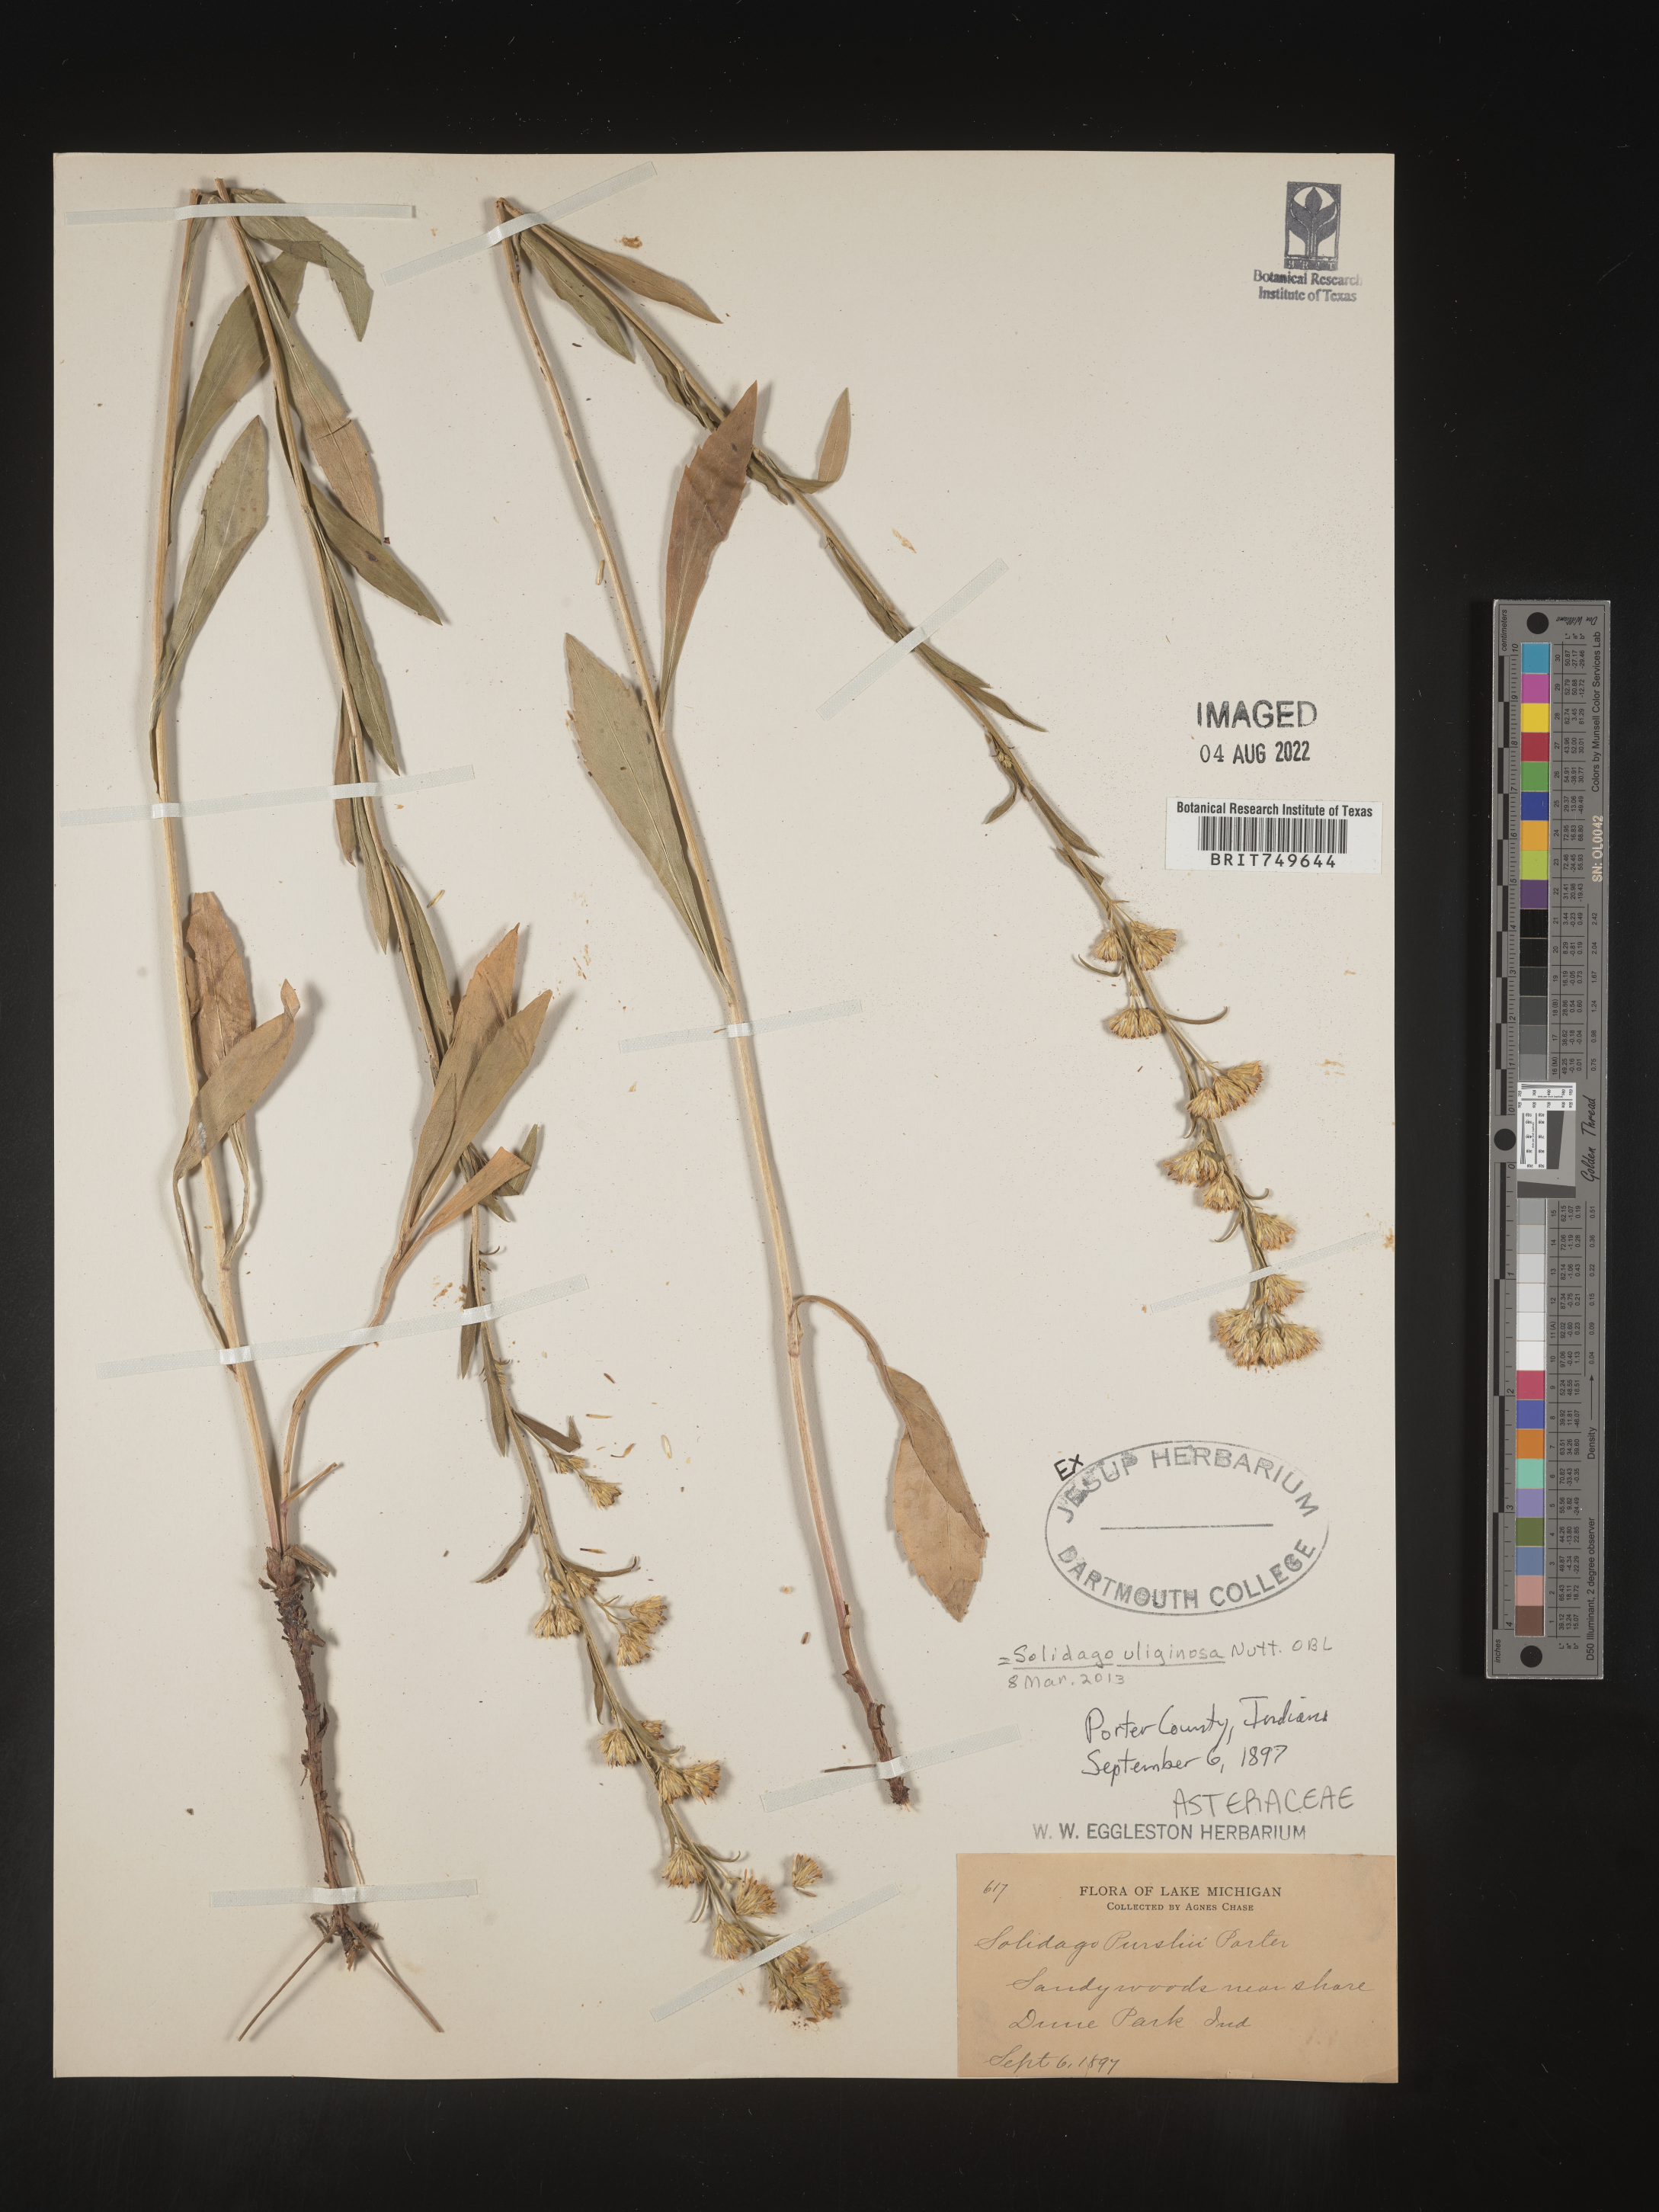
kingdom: Plantae
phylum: Tracheophyta
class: Magnoliopsida
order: Asterales
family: Asteraceae
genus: Solidago
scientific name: Solidago uliginosa
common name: Bog goldenrod
